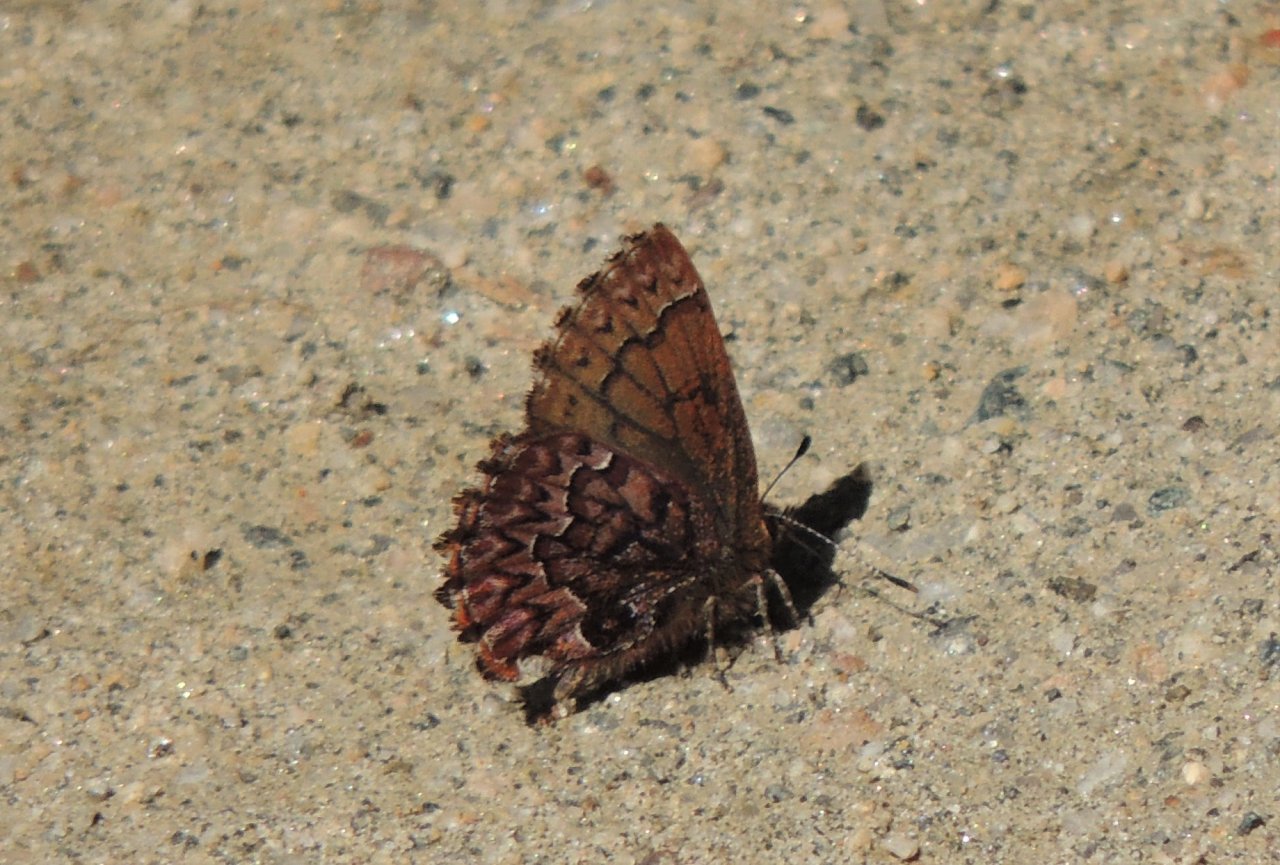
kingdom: Animalia
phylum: Arthropoda
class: Insecta
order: Lepidoptera
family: Lycaenidae
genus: Incisalia
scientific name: Incisalia eryphon
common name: Western Pine Elfin
